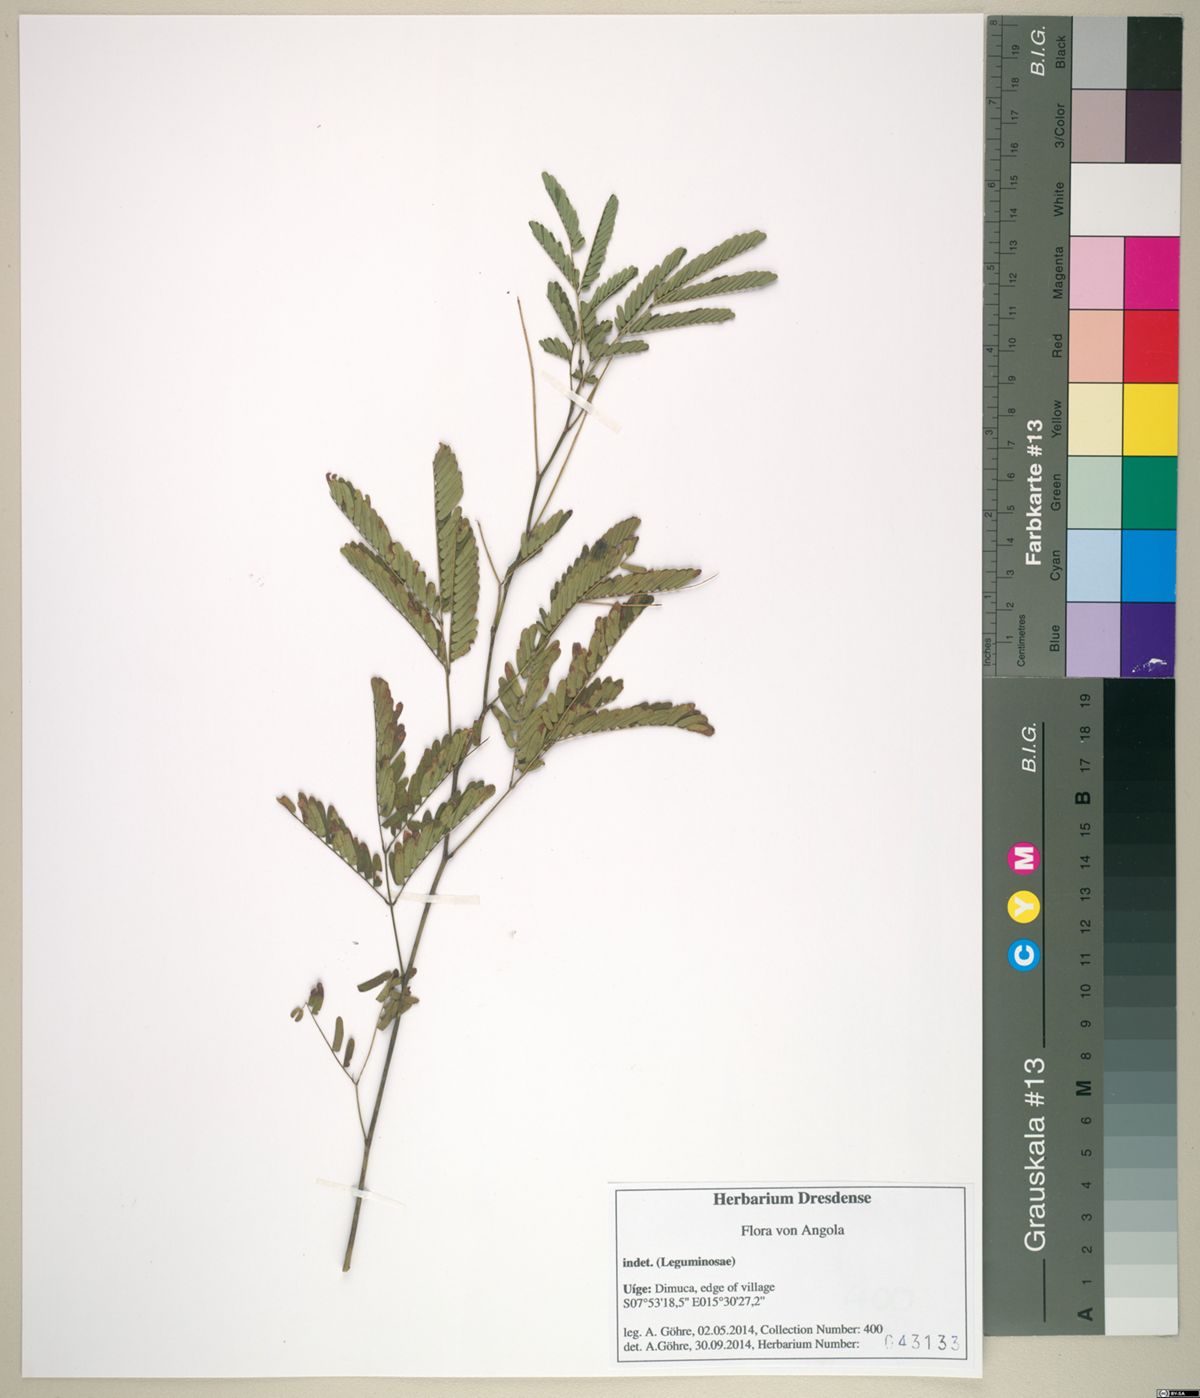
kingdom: Plantae
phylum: Tracheophyta
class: Magnoliopsida
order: Fabales
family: Fabaceae
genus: Albizia
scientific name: Albizia altissima
